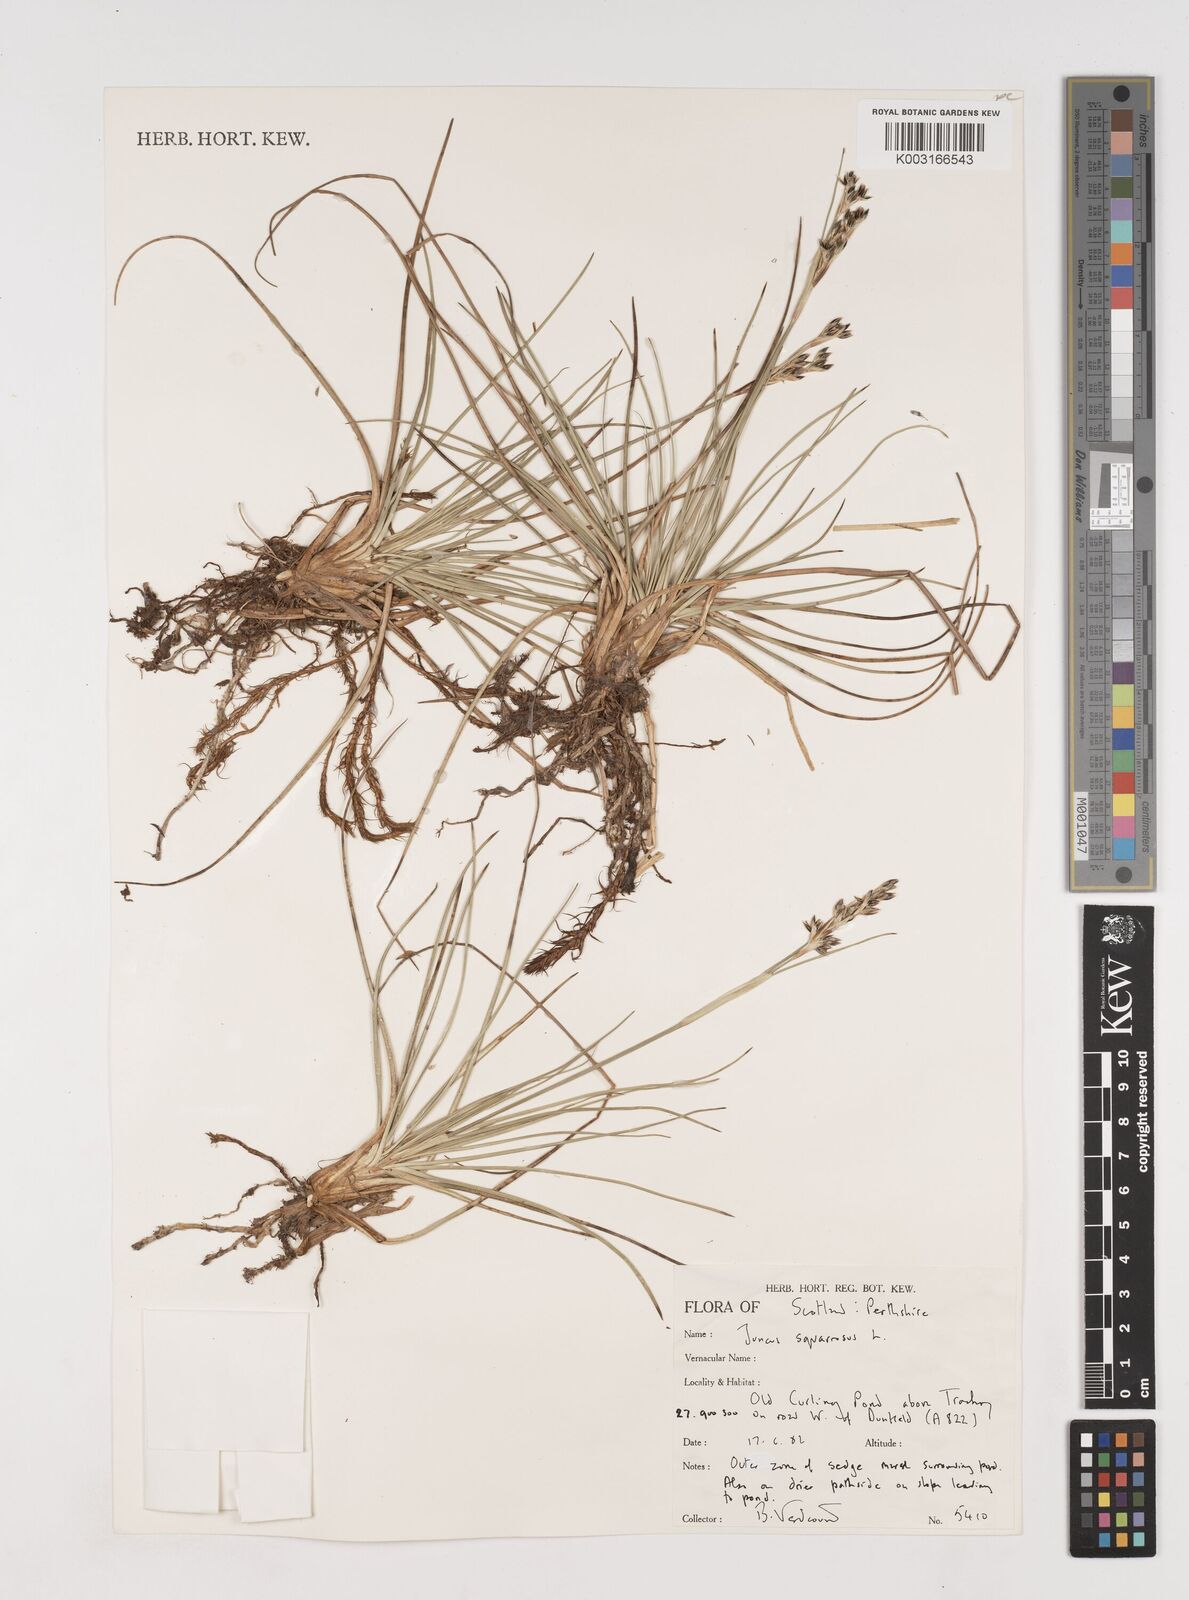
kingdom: Plantae
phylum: Tracheophyta
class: Liliopsida
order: Poales
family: Juncaceae
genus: Juncus
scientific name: Juncus squarrosus
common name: Heath rush
